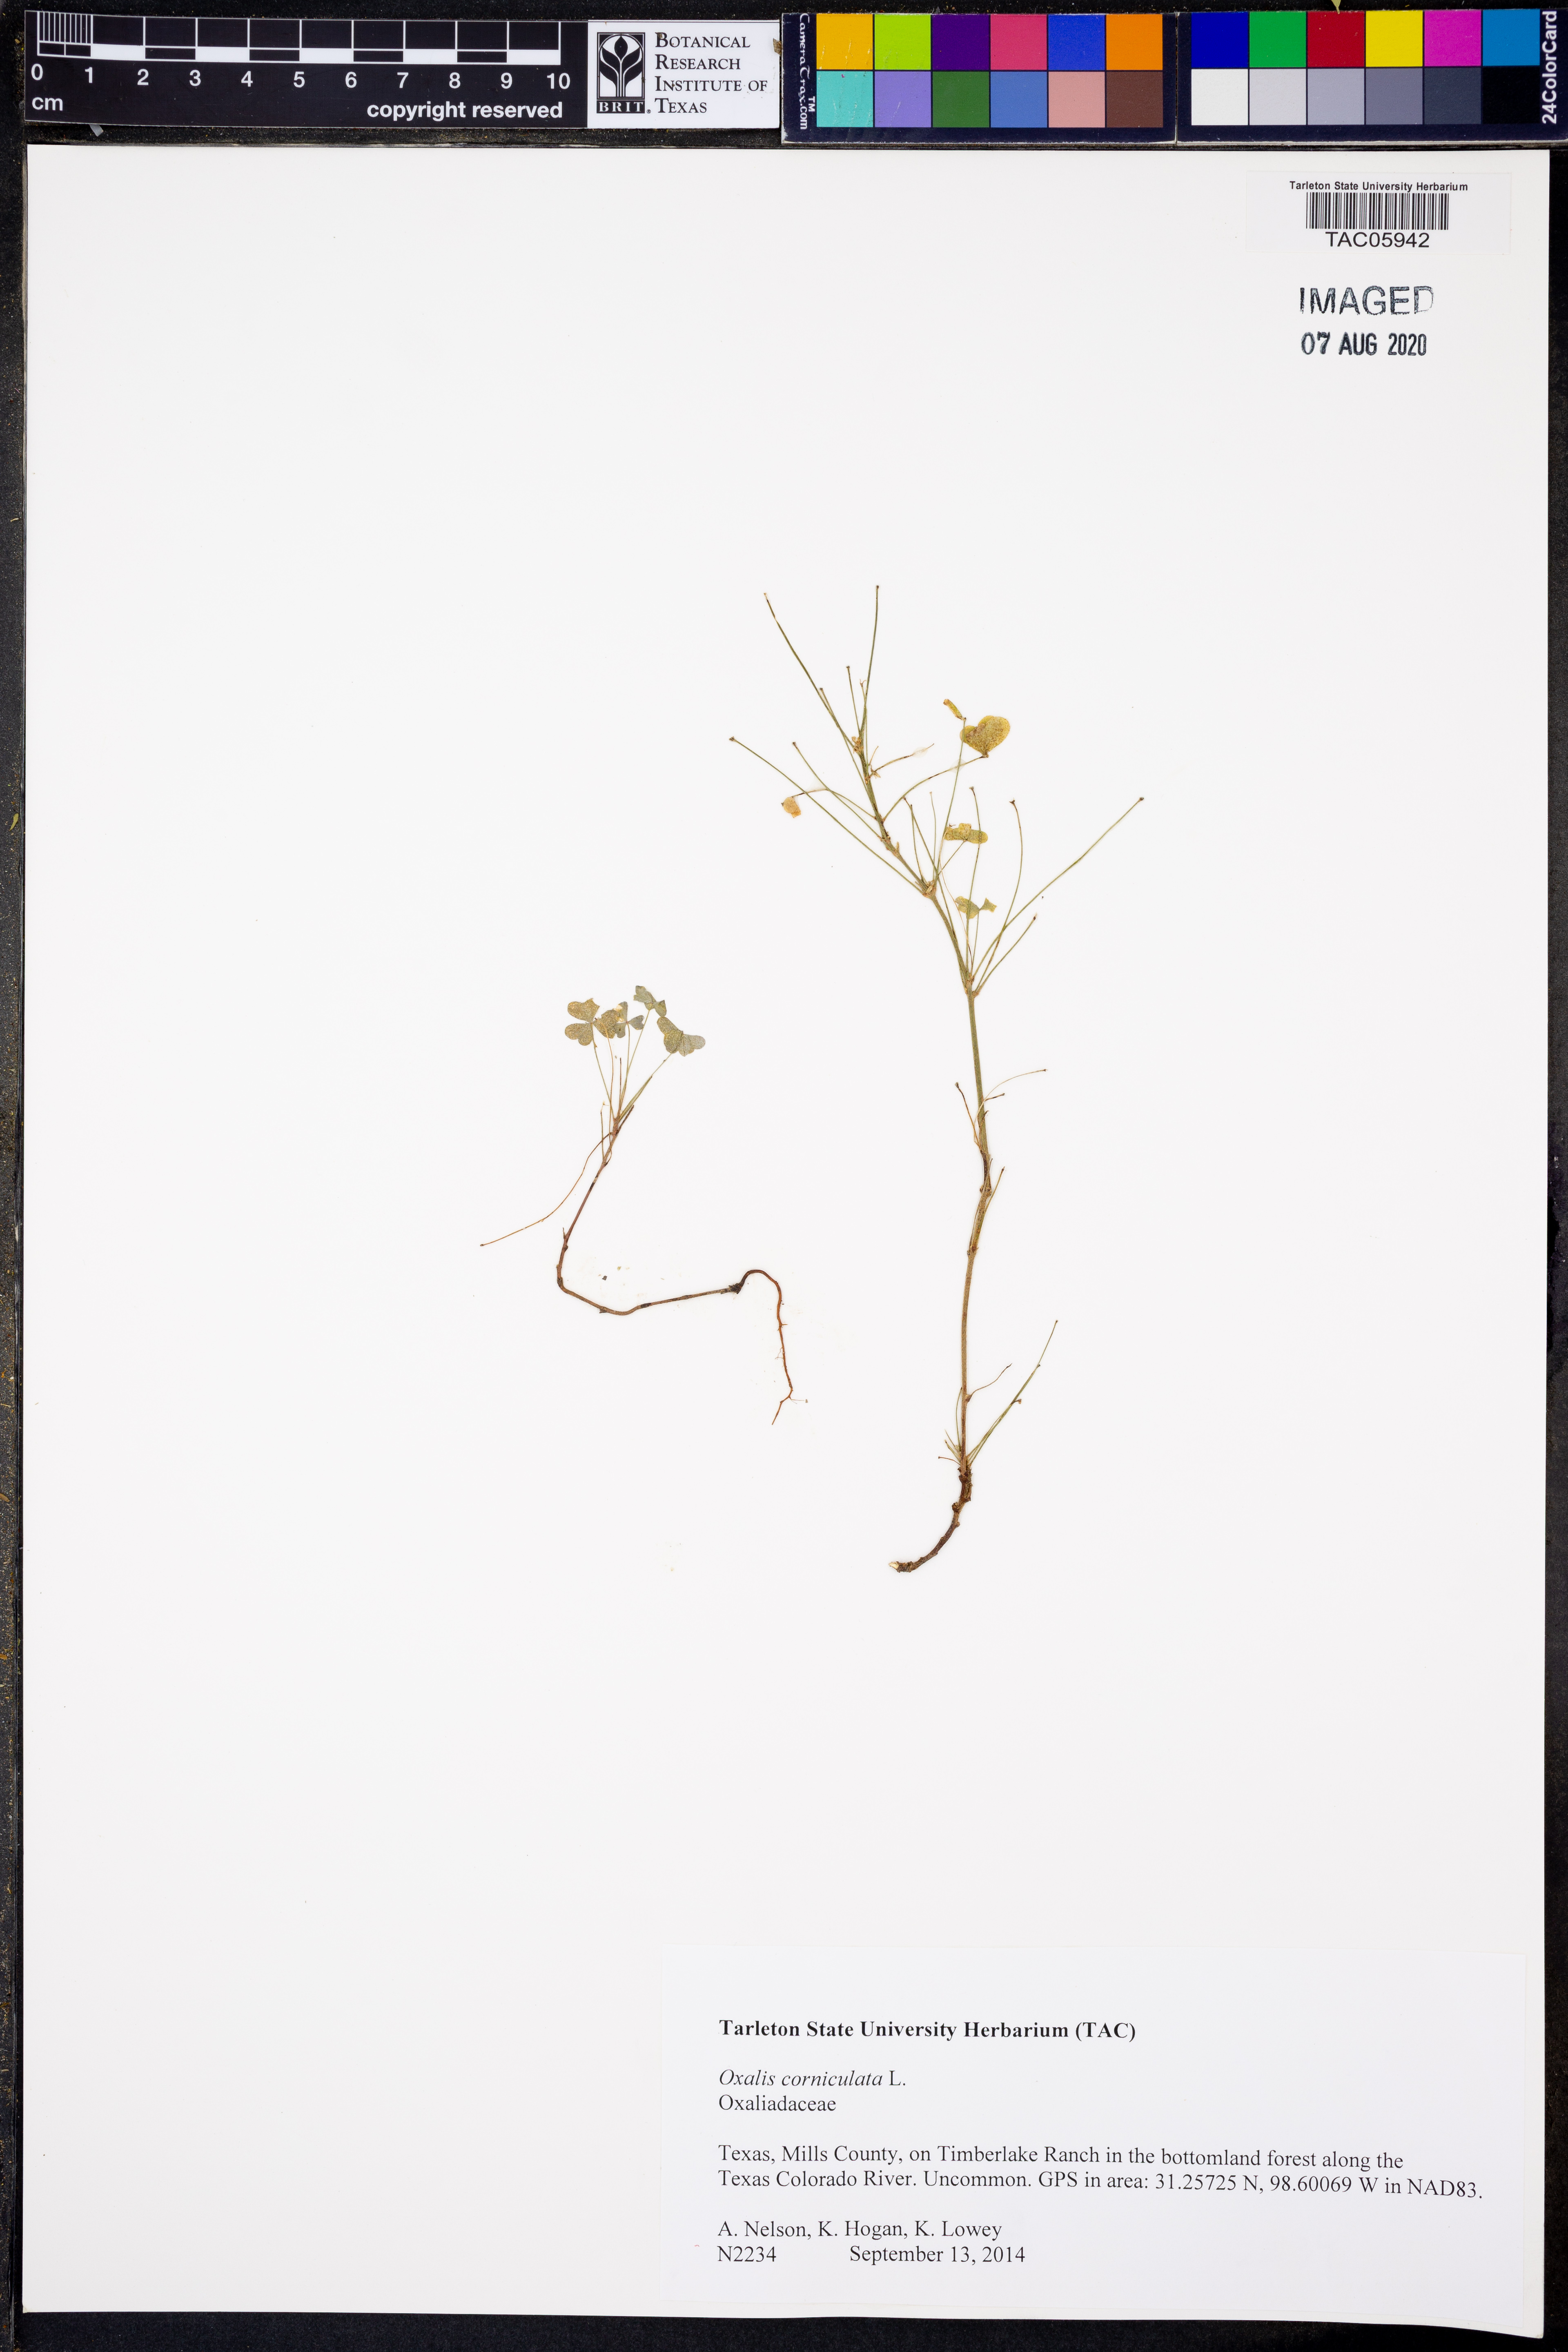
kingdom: Plantae
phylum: Tracheophyta
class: Magnoliopsida
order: Oxalidales
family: Oxalidaceae
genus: Oxalis
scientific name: Oxalis corniculata
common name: Procumbent yellow-sorrel
